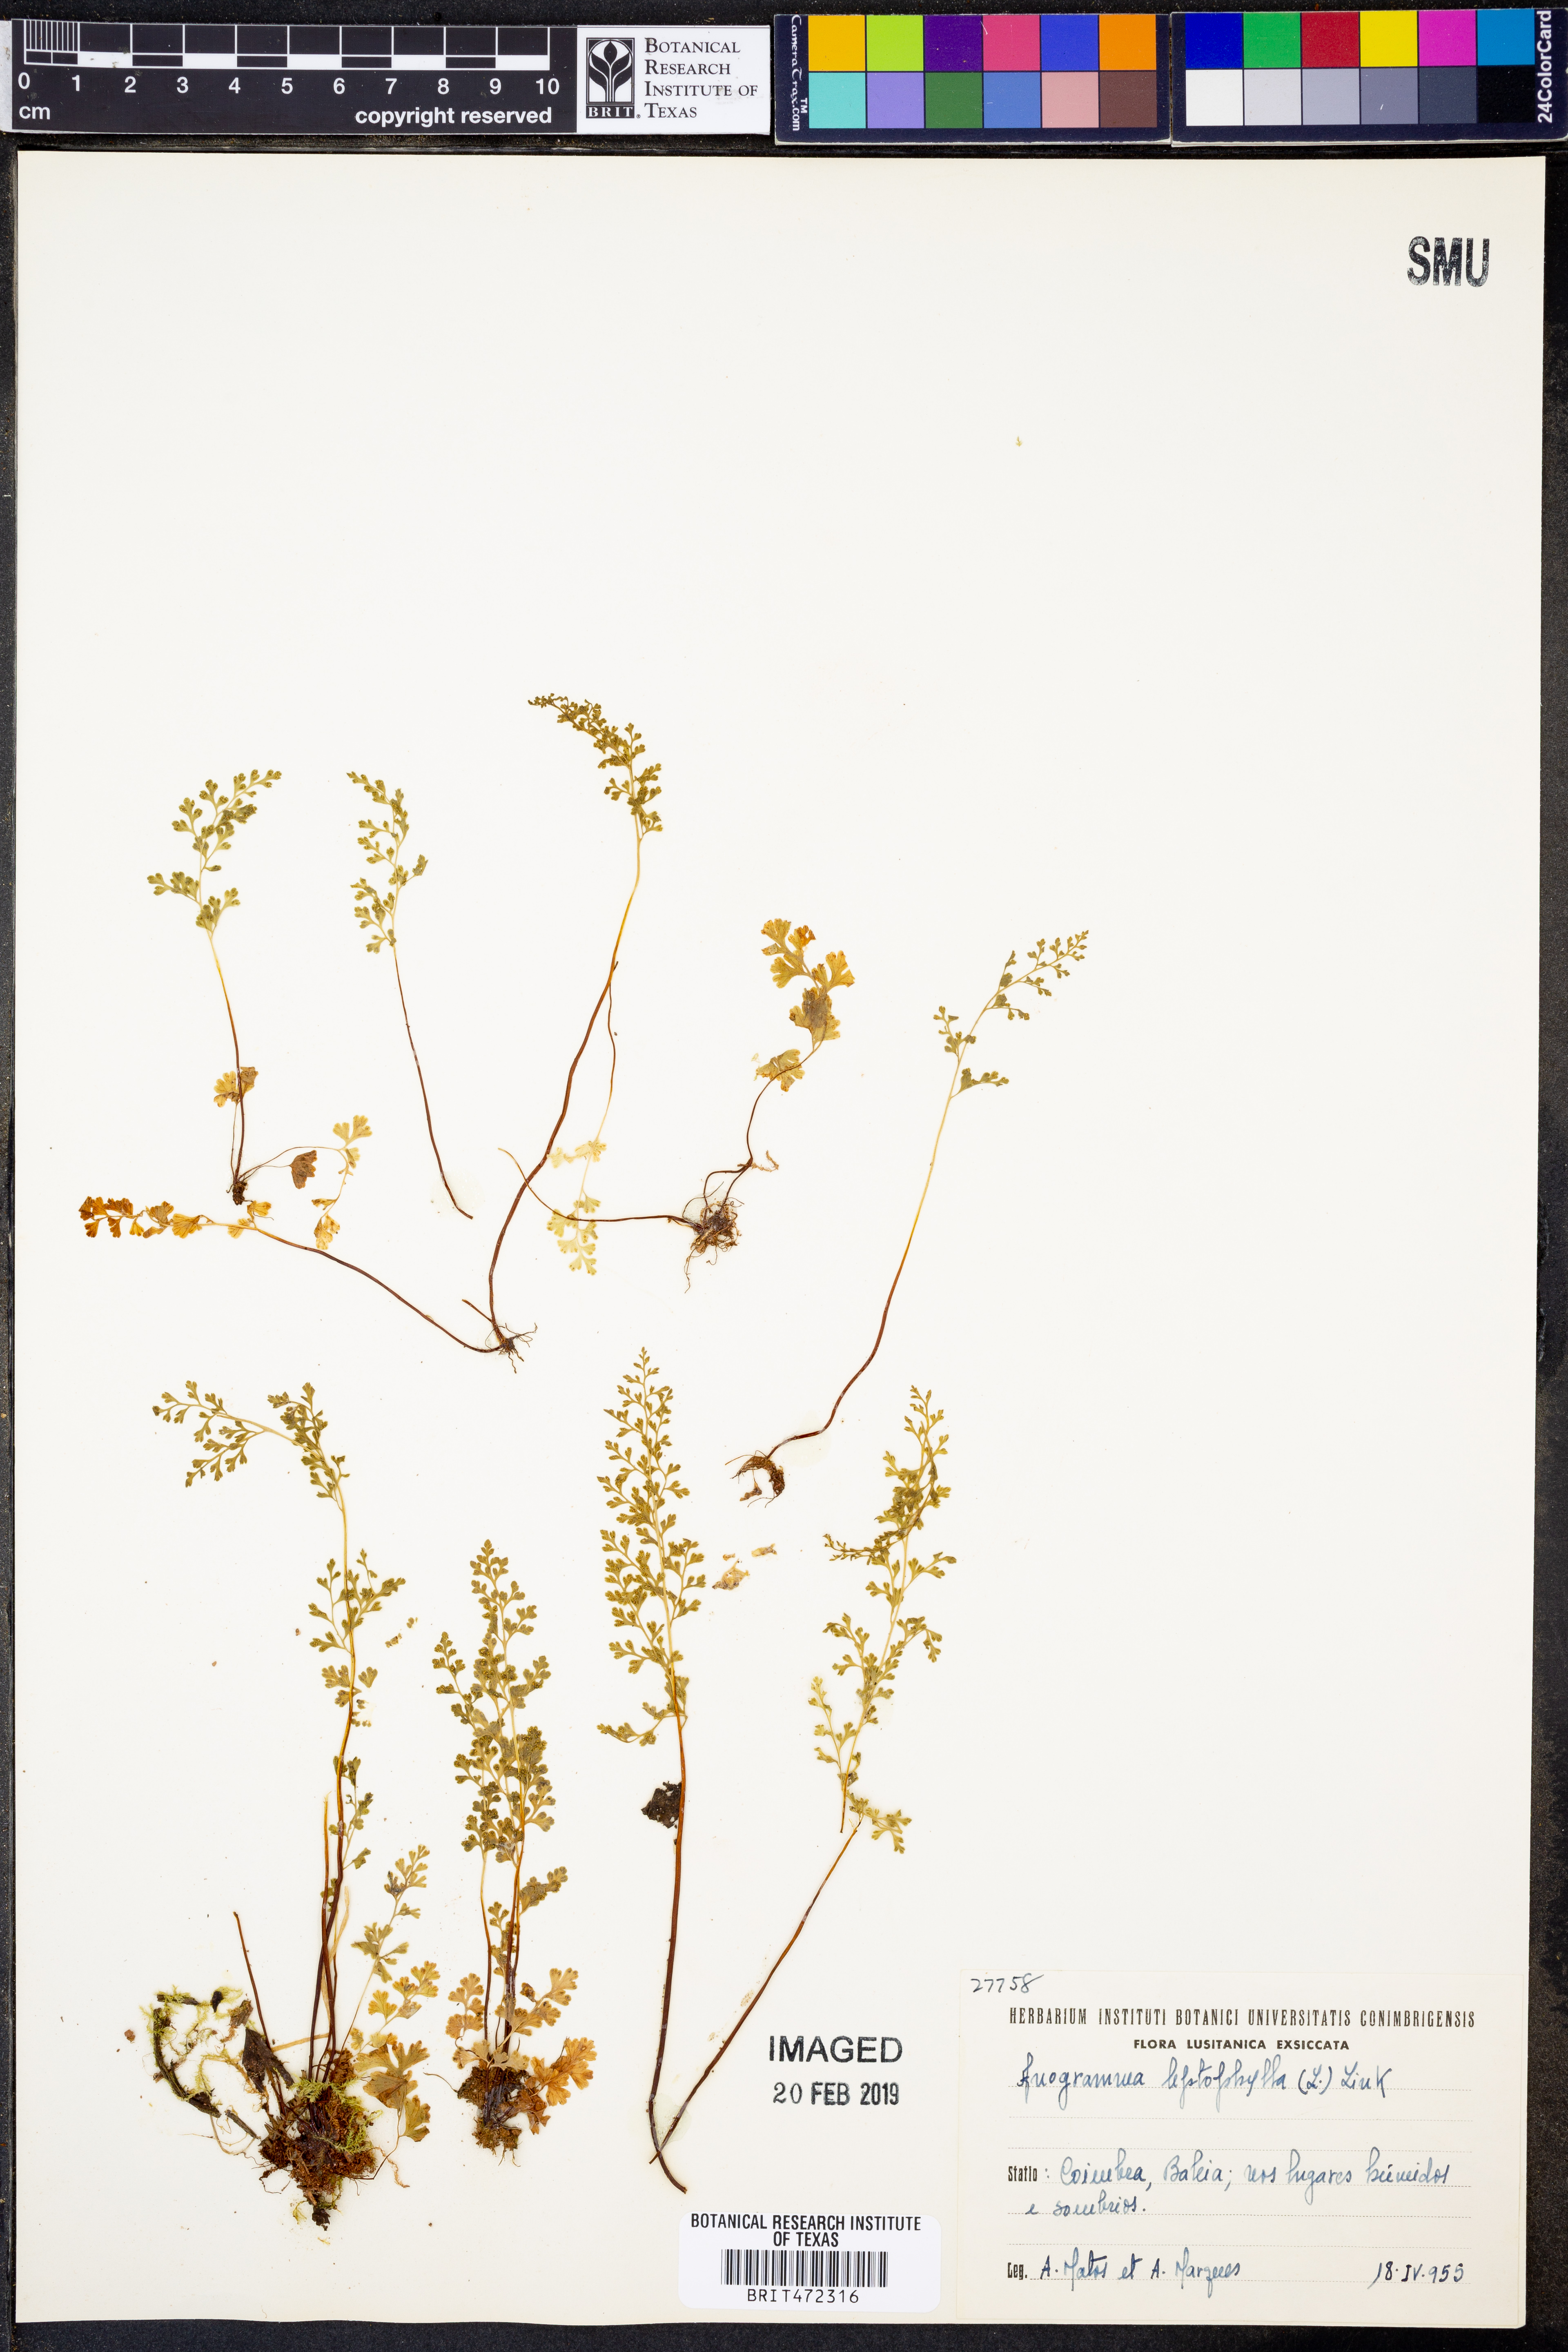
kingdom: Plantae
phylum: Tracheophyta
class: Polypodiopsida
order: Polypodiales
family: Pteridaceae
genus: Anogramma
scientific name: Anogramma leptophylla
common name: Jersey fern
